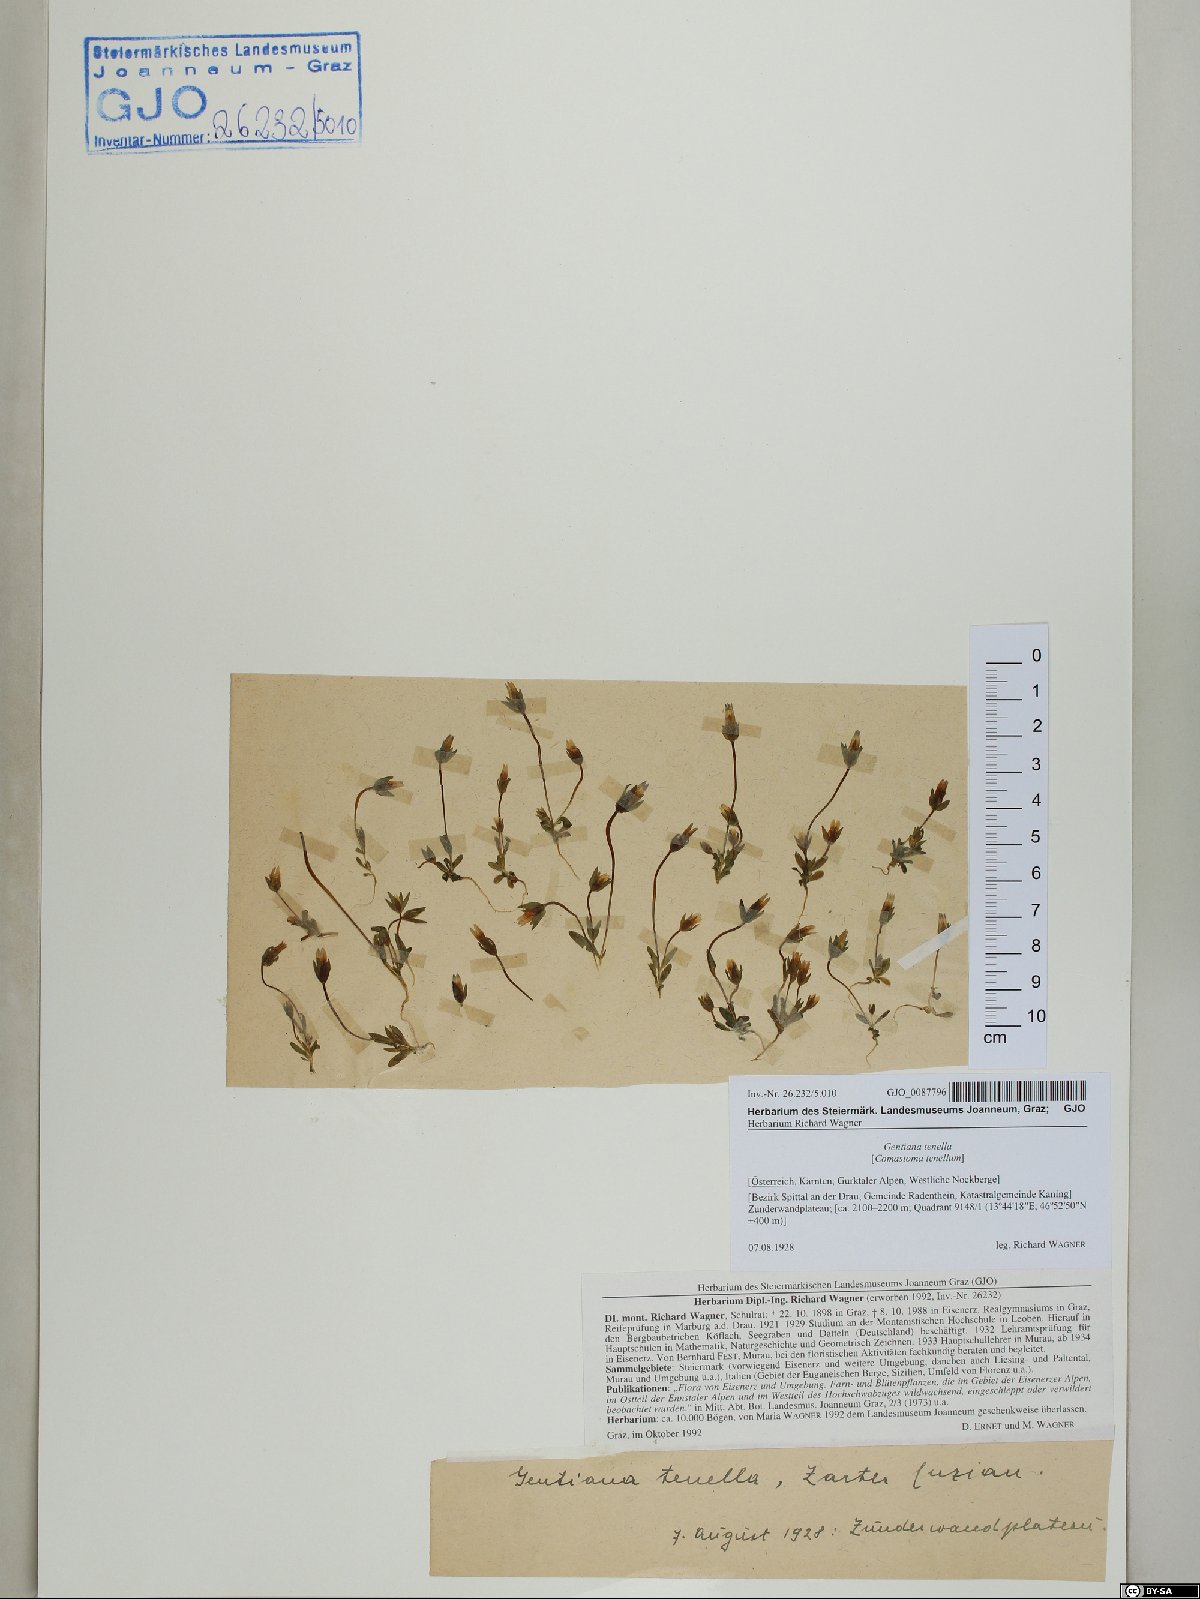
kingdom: Plantae
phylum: Tracheophyta
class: Magnoliopsida
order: Gentianales
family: Gentianaceae
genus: Comastoma
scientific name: Comastoma tenellum
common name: Dane's dwarf gentian
